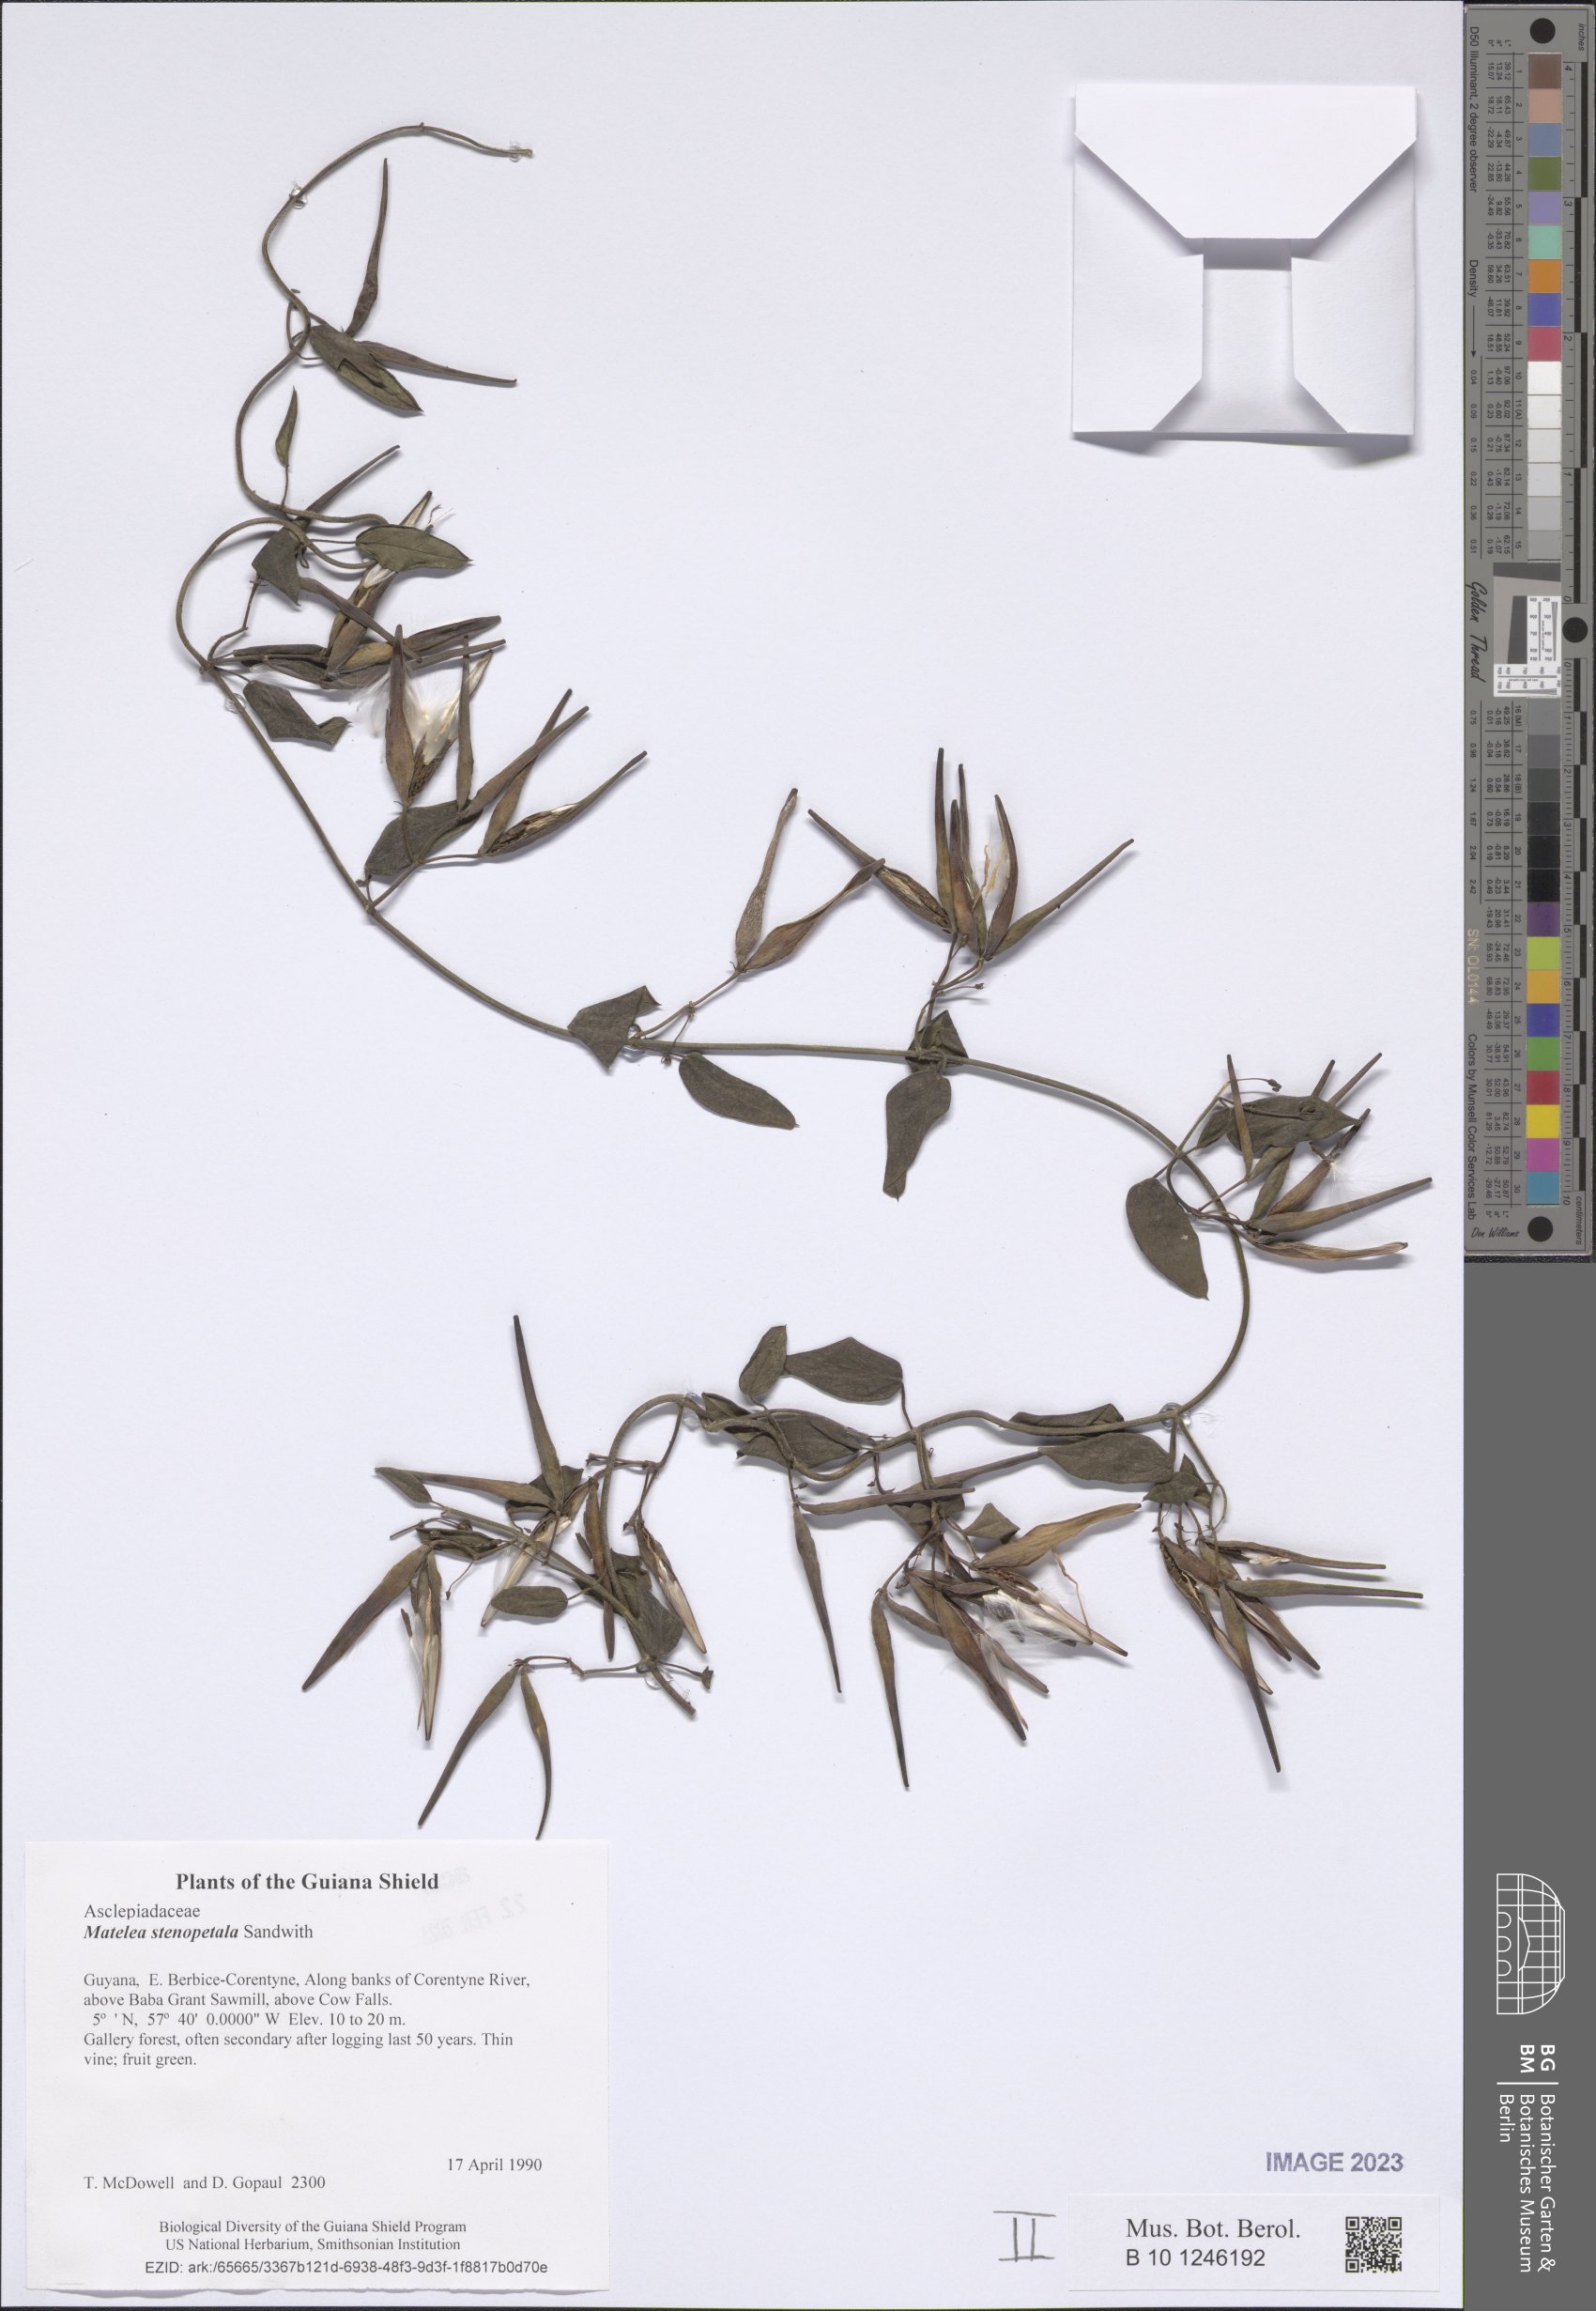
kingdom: Plantae
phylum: Tracheophyta
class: Magnoliopsida
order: Gentianales
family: Apocynaceae
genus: Matelea
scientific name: Matelea stenopetala
